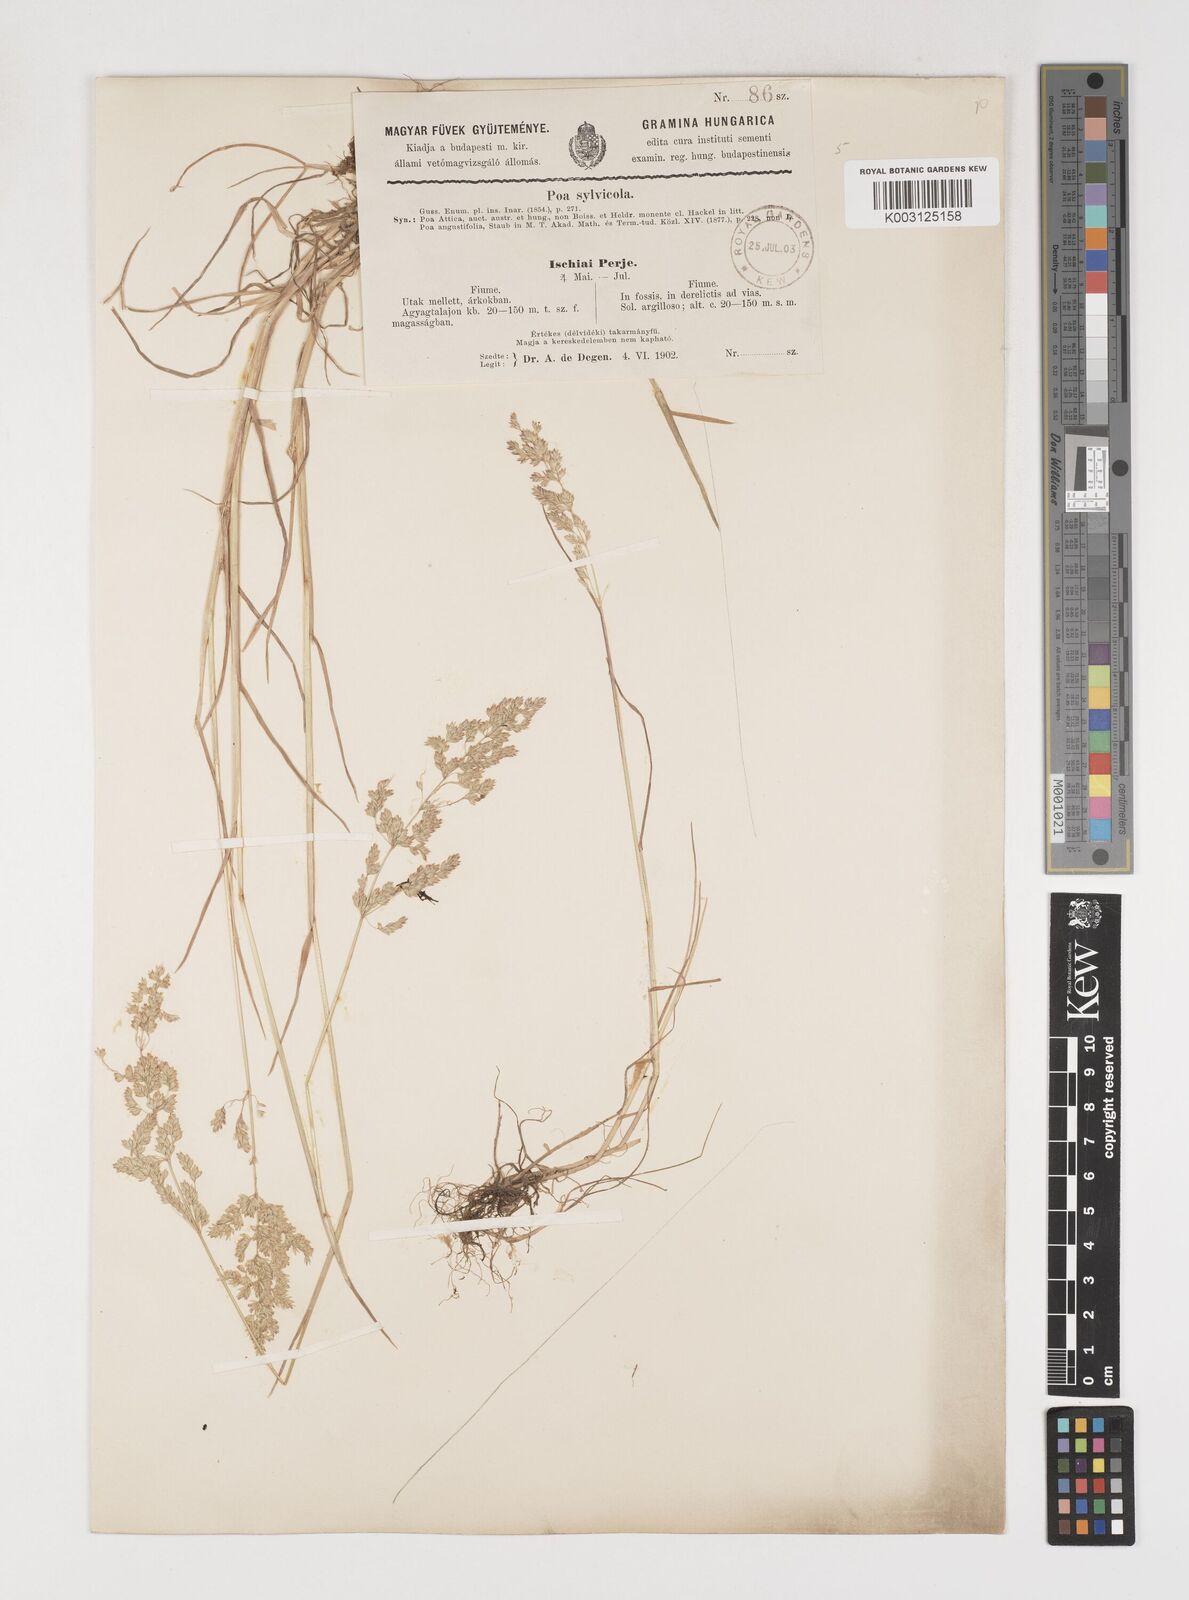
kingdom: Plantae
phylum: Tracheophyta
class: Liliopsida
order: Poales
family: Poaceae
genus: Poa
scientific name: Poa trivialis
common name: Rough bluegrass
